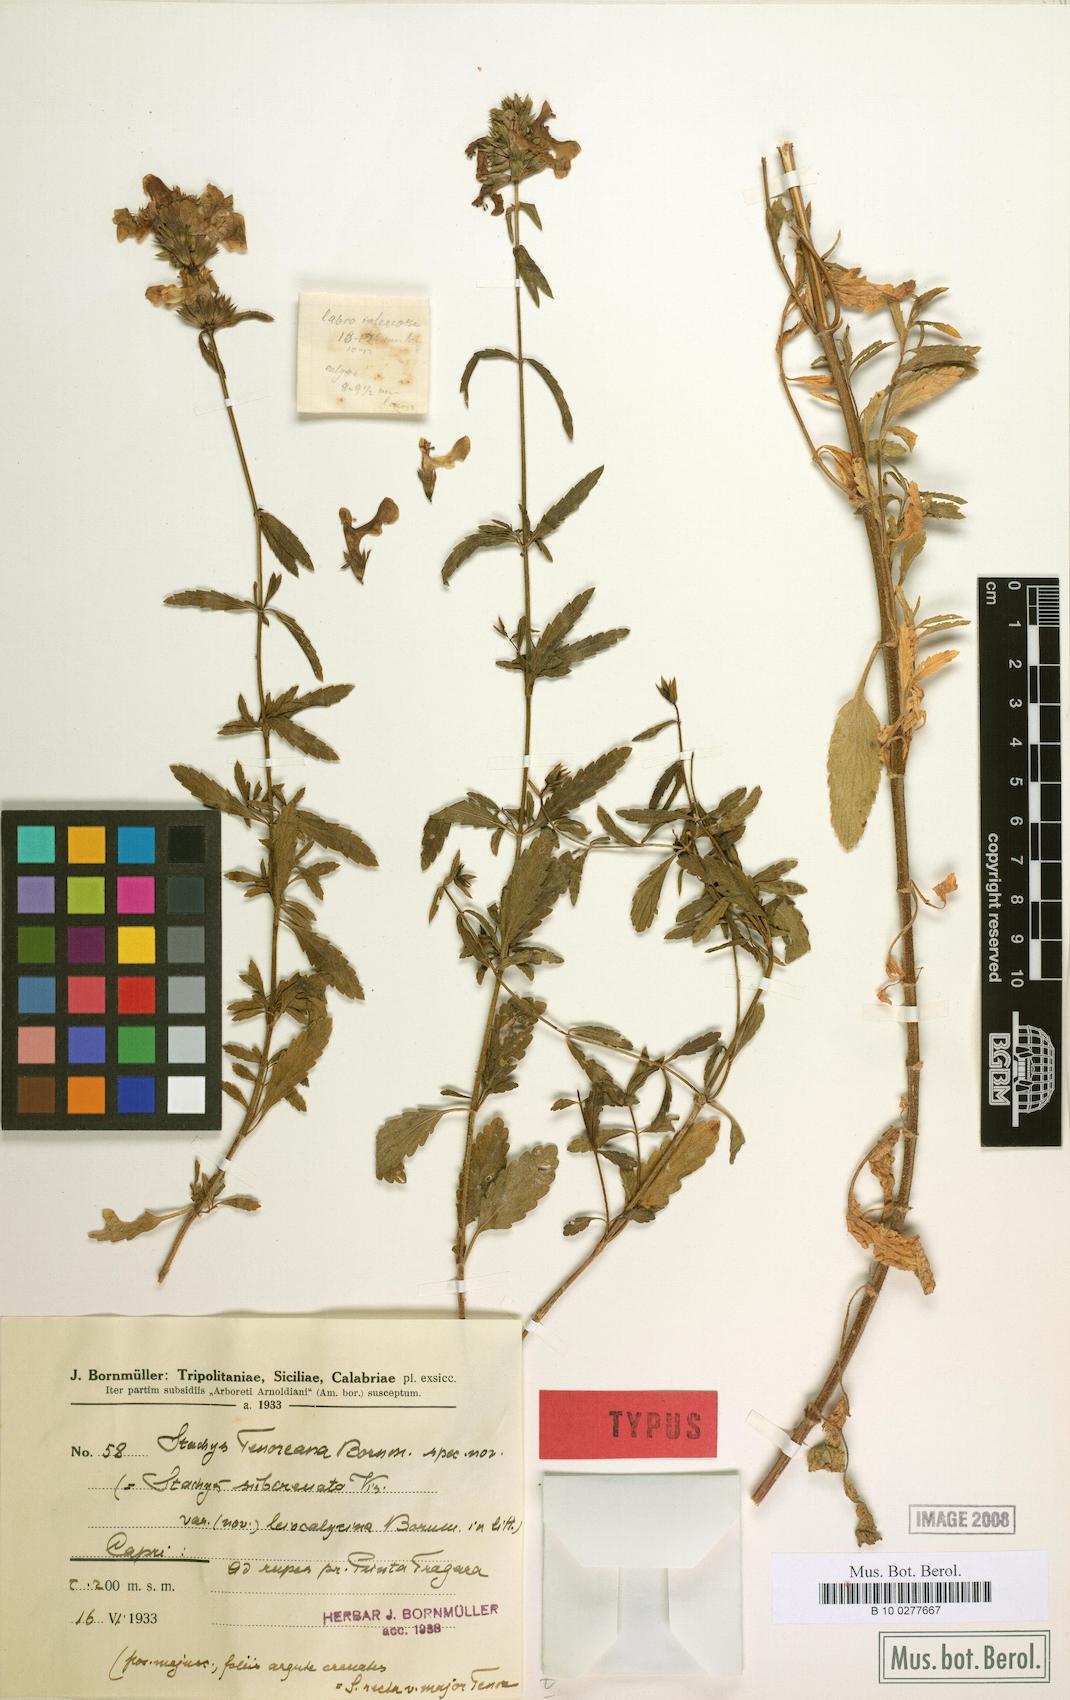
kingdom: Plantae
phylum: Tracheophyta
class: Magnoliopsida
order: Lamiales
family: Lamiaceae
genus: Stachys
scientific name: Stachys recta
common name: Perennial yellow-woundwort
